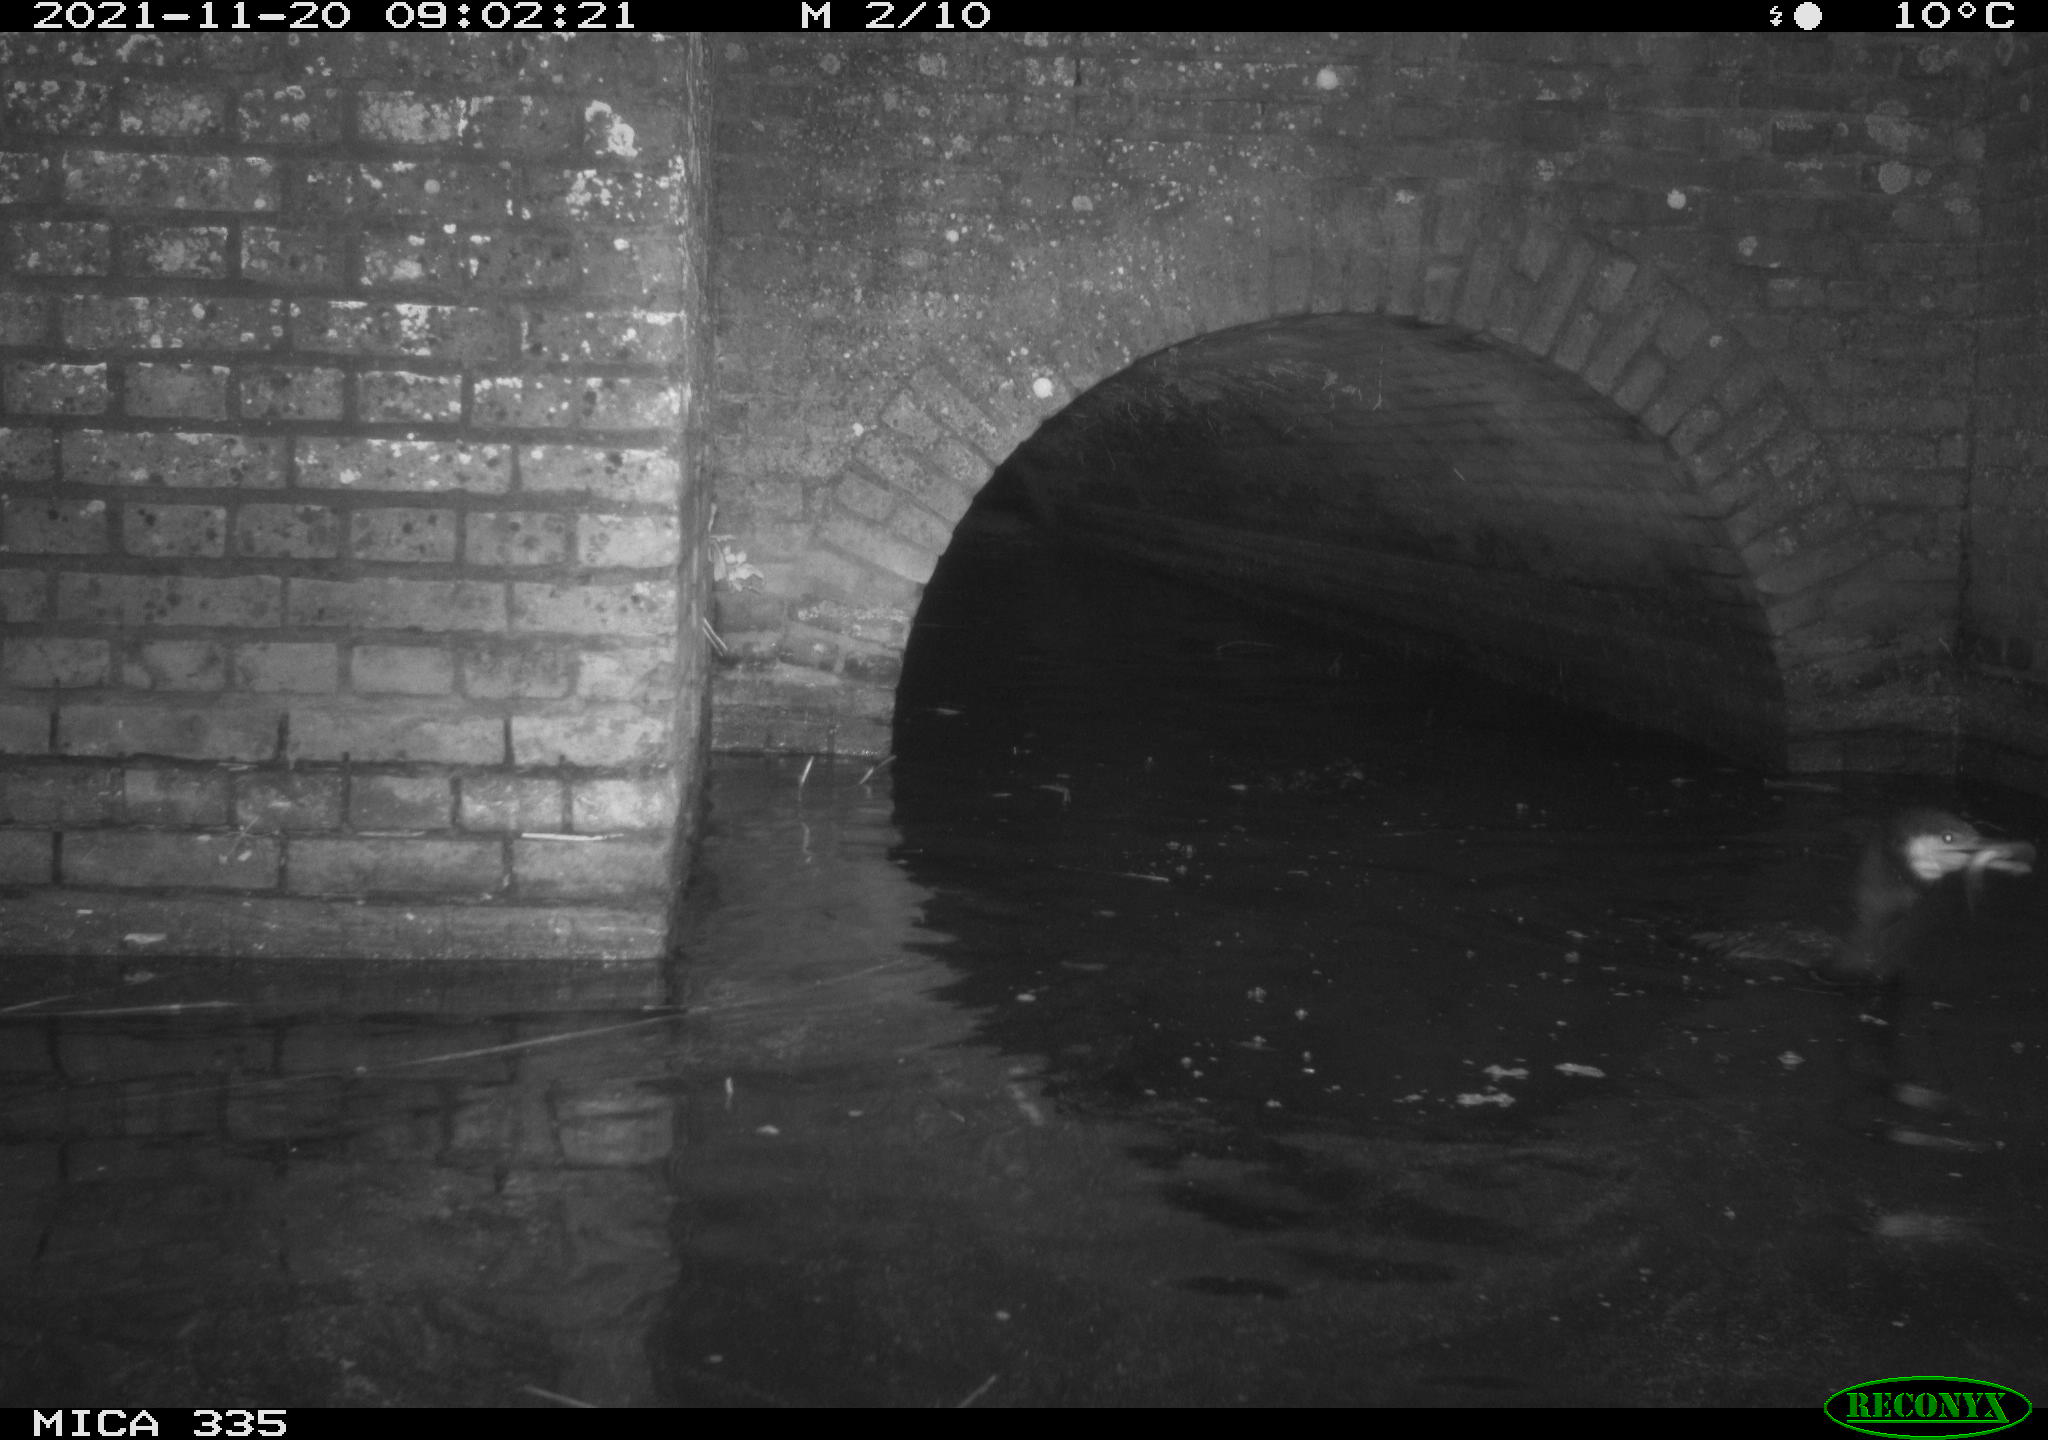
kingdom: Animalia
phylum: Chordata
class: Aves
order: Suliformes
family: Phalacrocoracidae
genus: Phalacrocorax
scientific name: Phalacrocorax carbo
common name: Great cormorant
